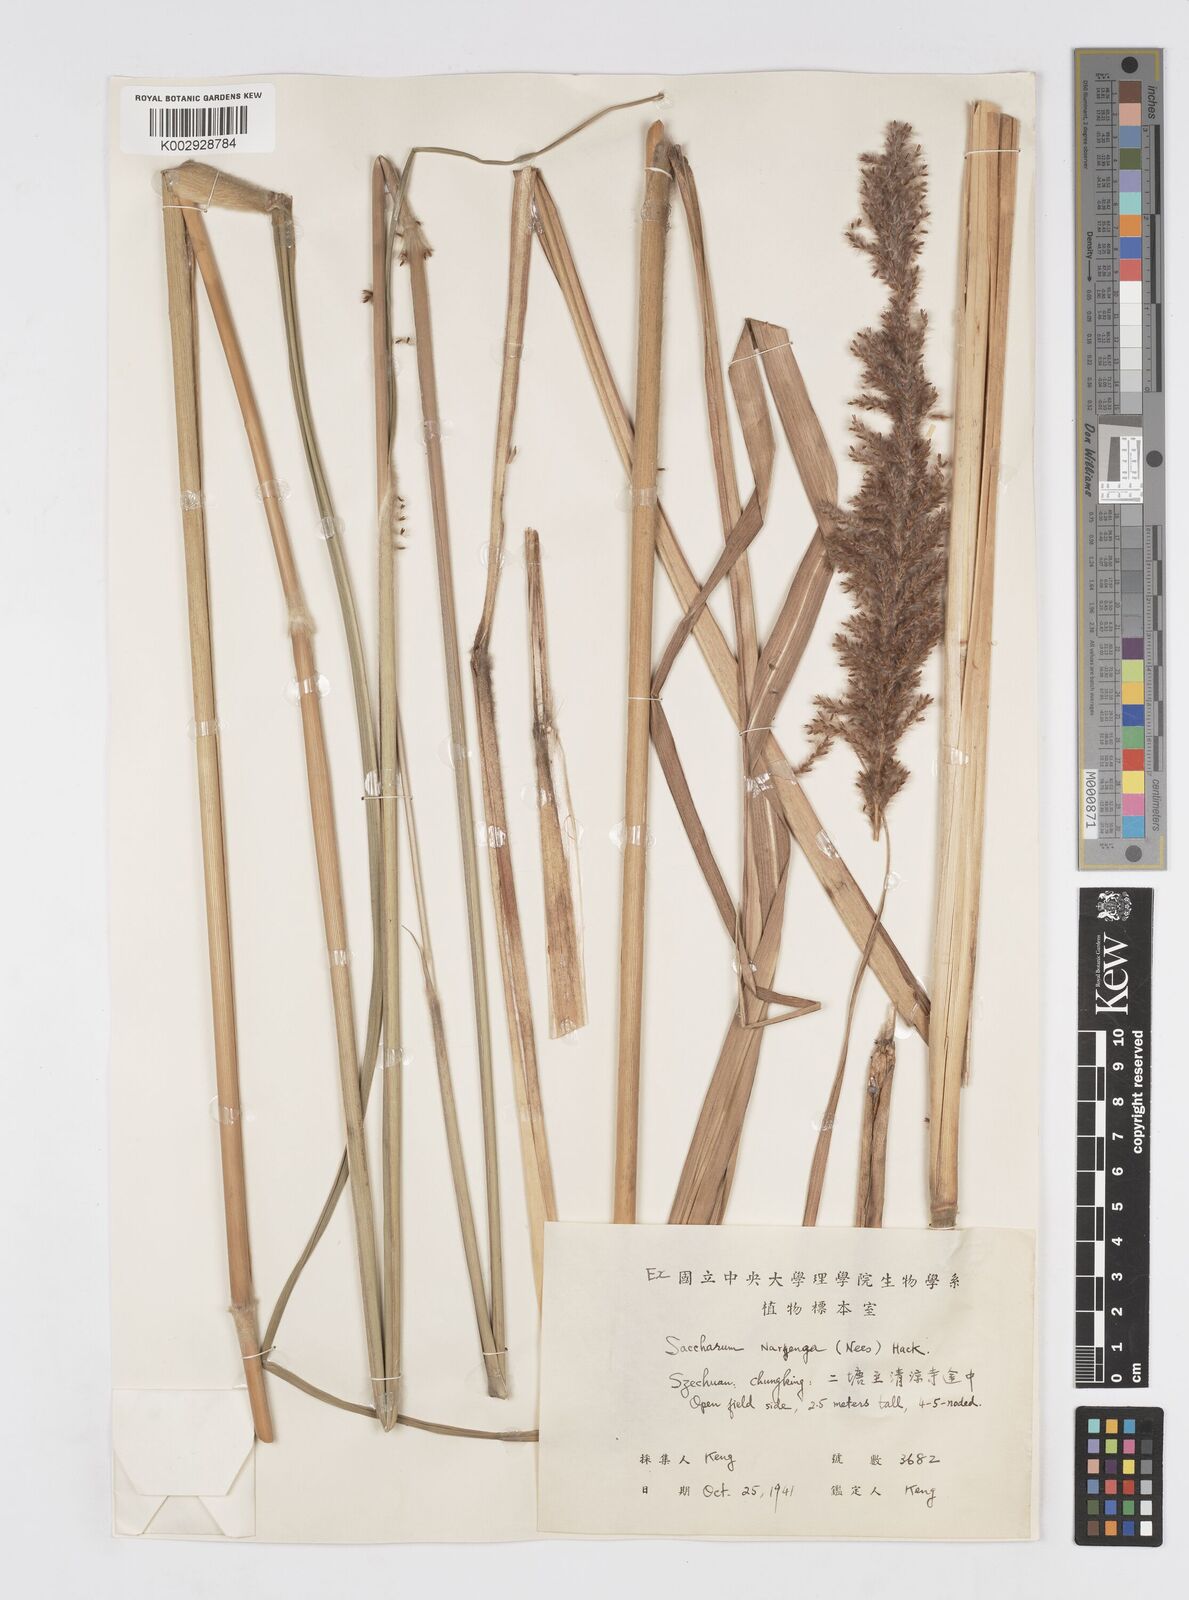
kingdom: Plantae
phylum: Tracheophyta
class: Liliopsida
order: Poales
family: Poaceae
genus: Narenga
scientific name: Narenga porphyrocoma
